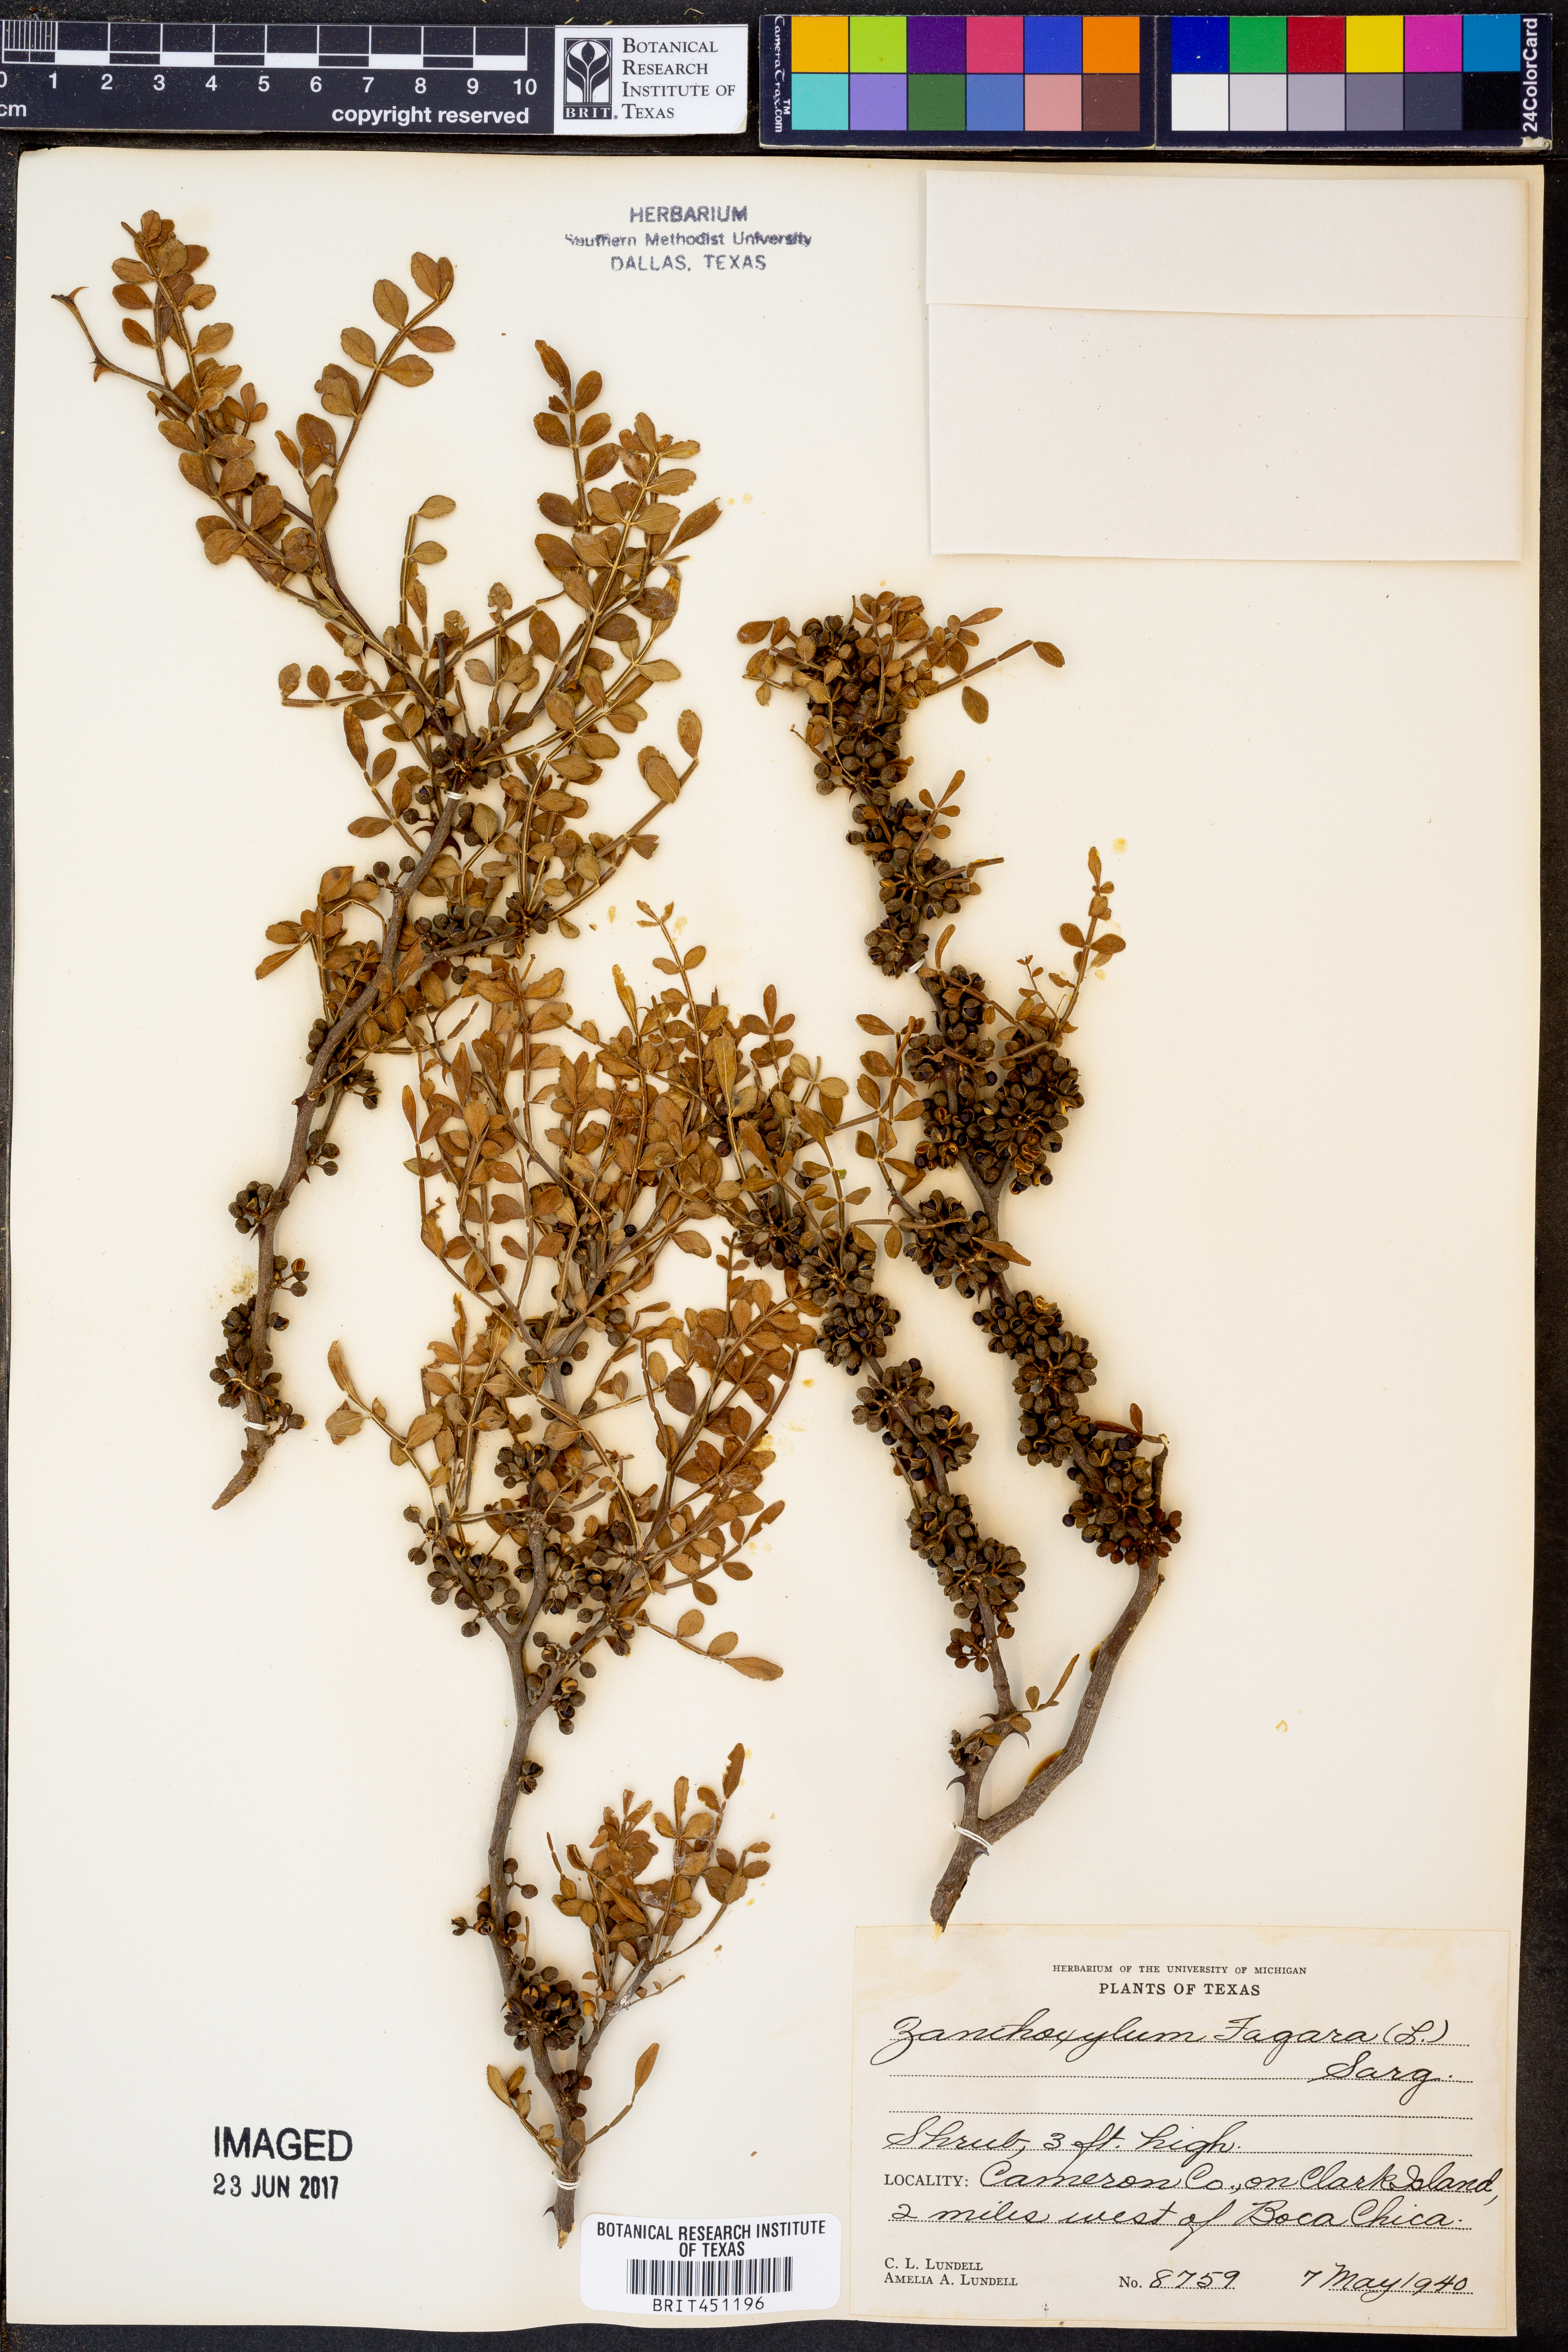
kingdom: Plantae
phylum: Tracheophyta
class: Magnoliopsida
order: Sapindales
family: Rutaceae
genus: Zanthoxylum
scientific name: Zanthoxylum fagara
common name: Lime prickly-ash
